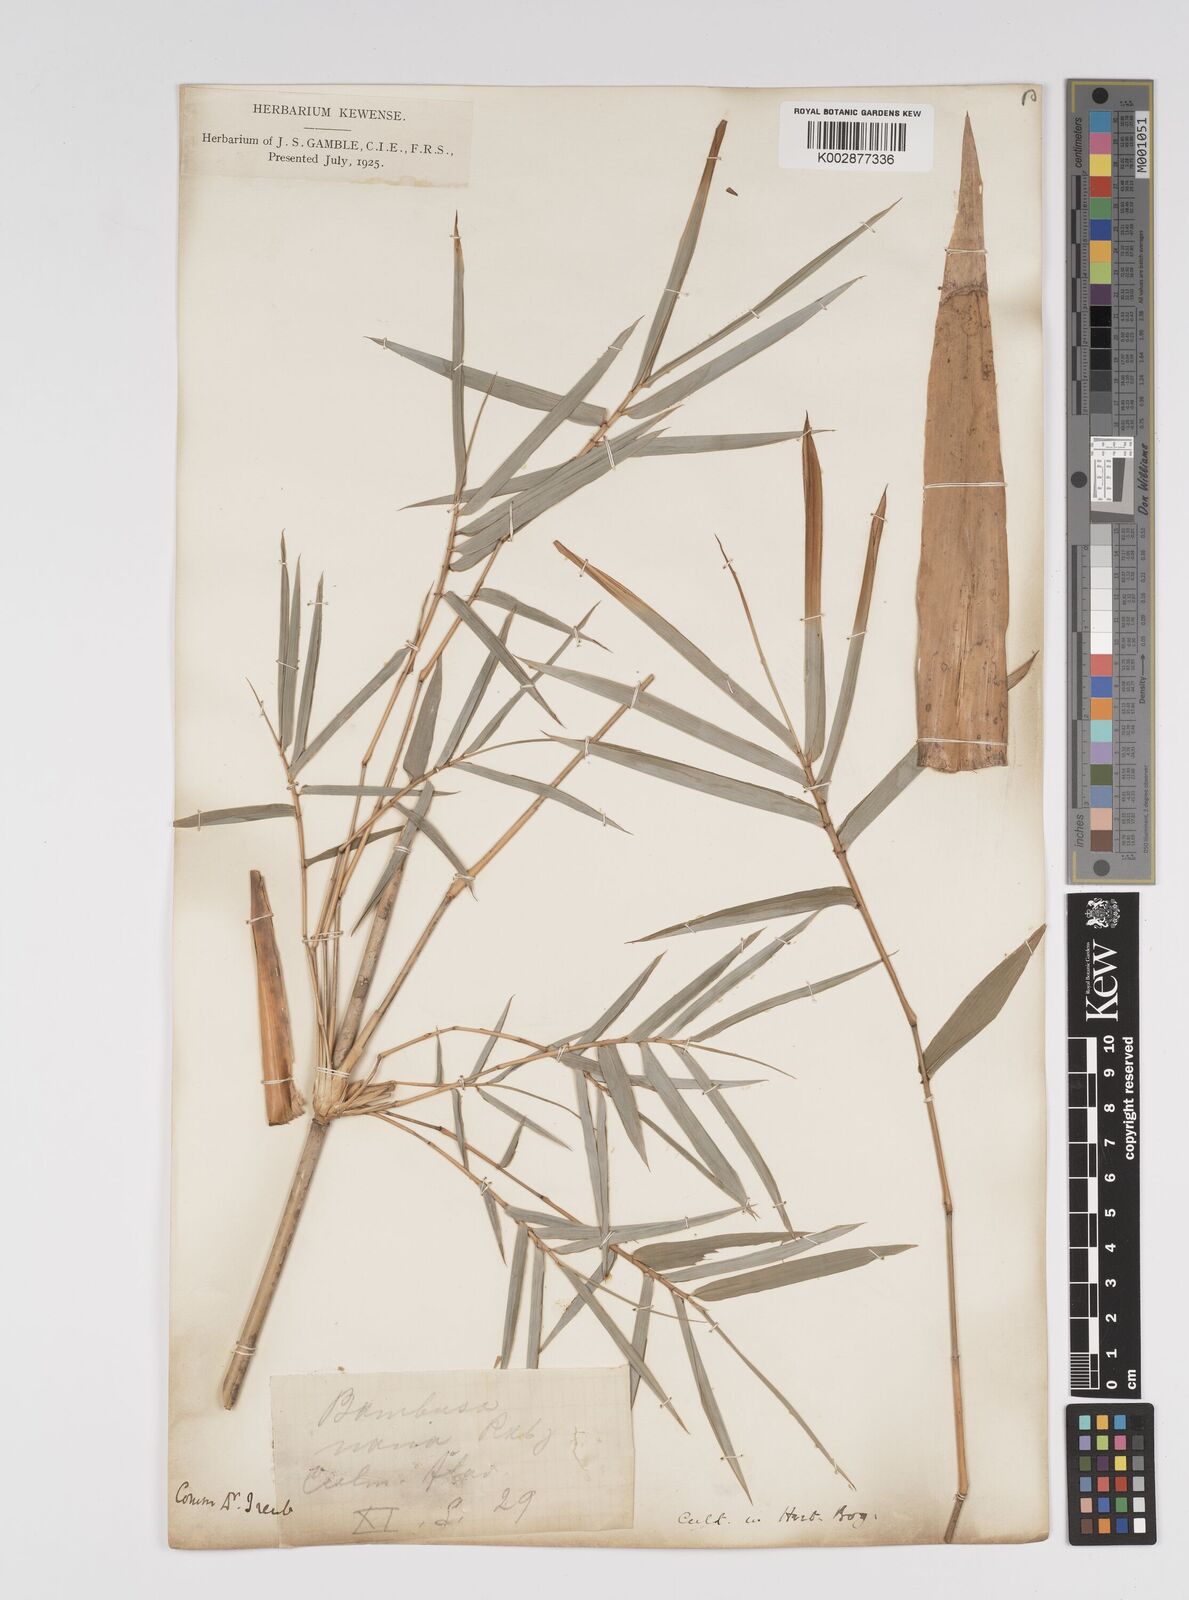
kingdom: Plantae
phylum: Tracheophyta
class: Liliopsida
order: Poales
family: Poaceae
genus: Bambusa
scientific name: Bambusa multiplex
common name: Hedge bamboo
